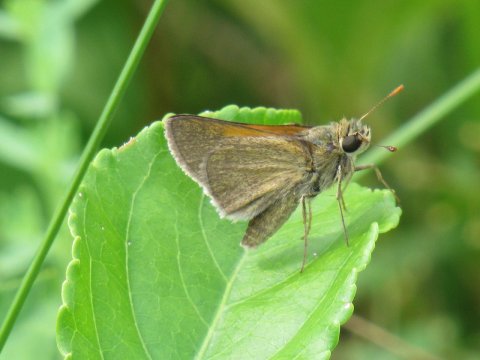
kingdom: Animalia
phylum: Arthropoda
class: Insecta
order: Lepidoptera
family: Hesperiidae
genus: Polites
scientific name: Polites themistocles
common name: Tawny-edged Skipper
